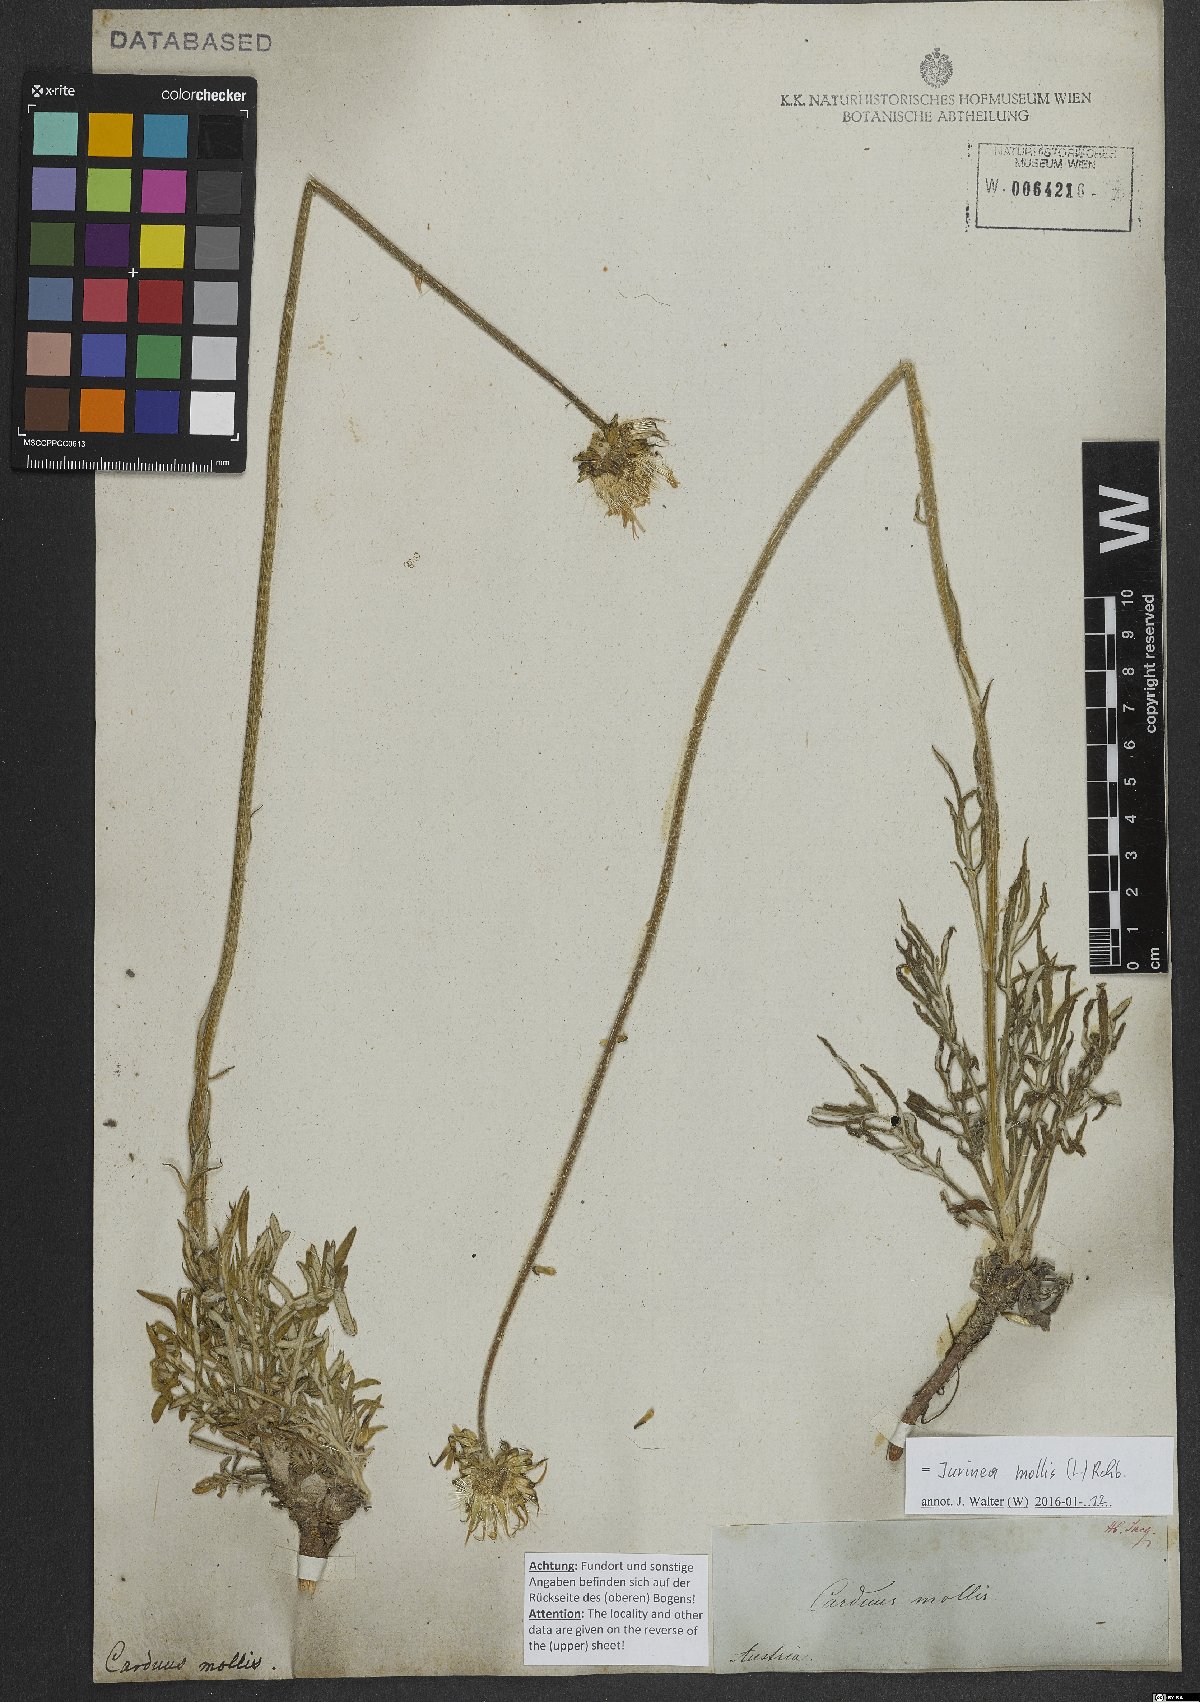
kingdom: Plantae
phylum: Tracheophyta
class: Magnoliopsida
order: Asterales
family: Asteraceae
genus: Jurinea
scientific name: Jurinea mollis
